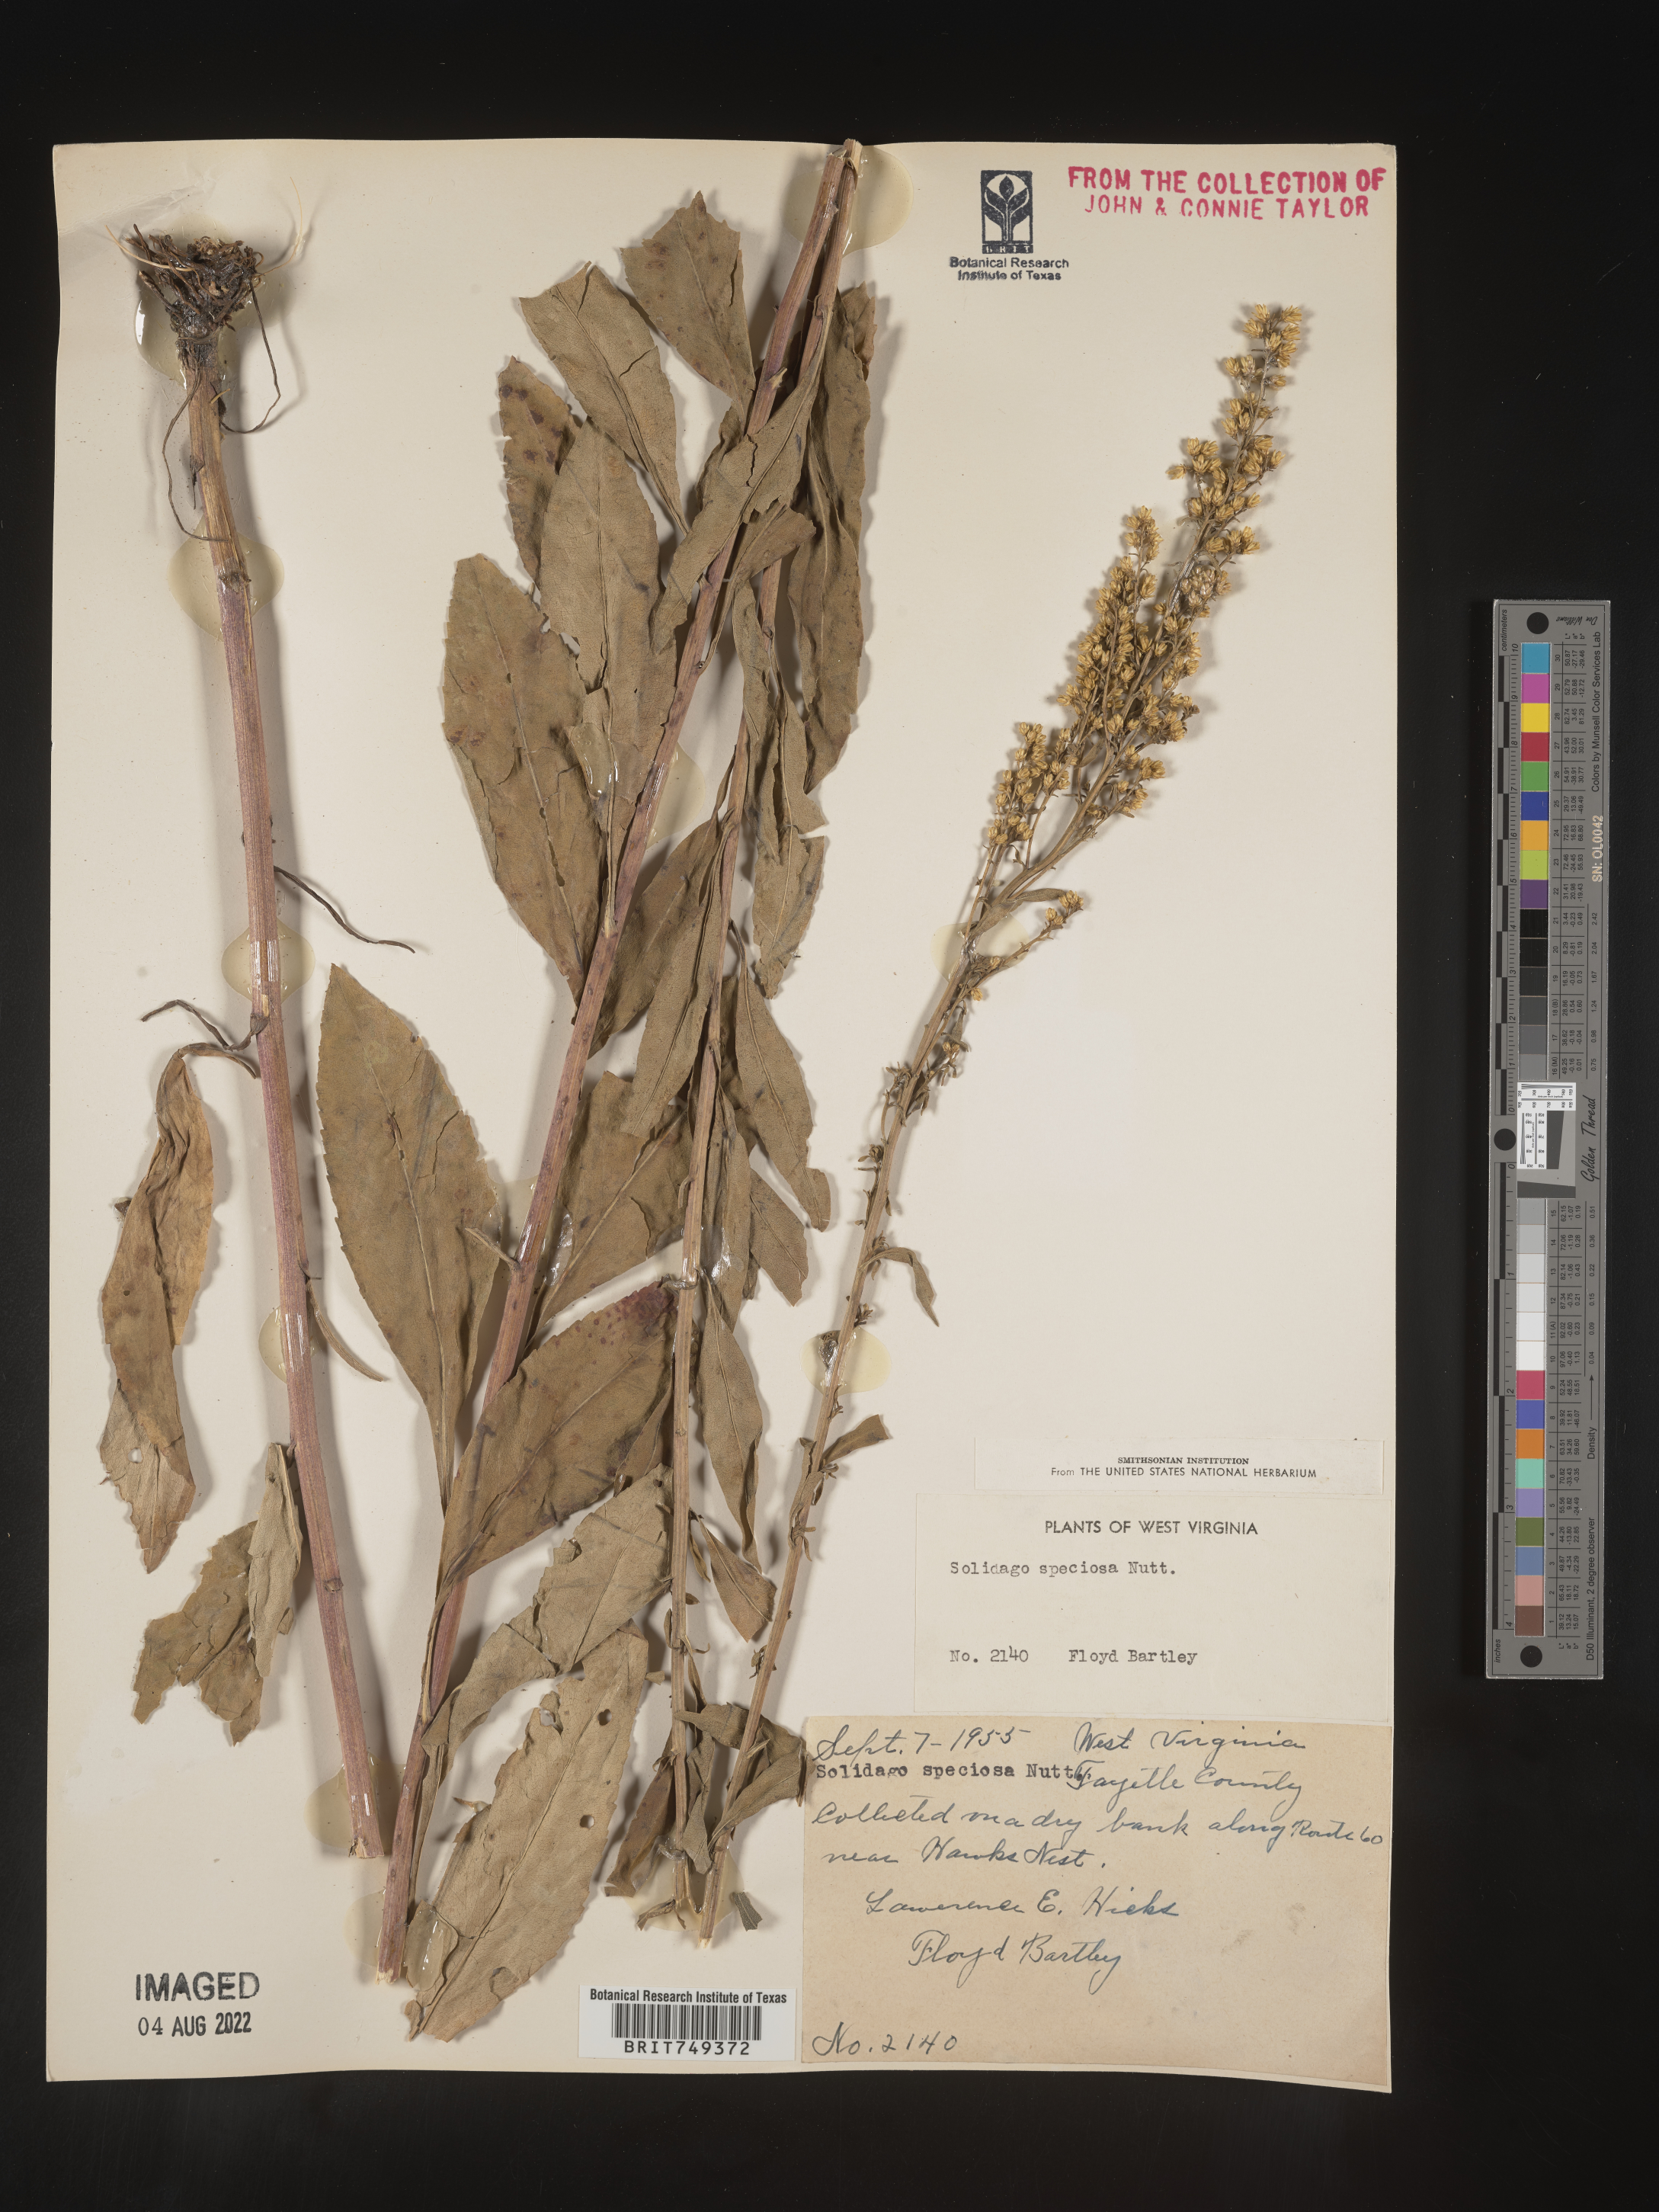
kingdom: Plantae
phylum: Tracheophyta
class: Magnoliopsida
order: Asterales
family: Asteraceae
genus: Solidago
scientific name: Solidago speciosa
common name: Showy goldenrod
